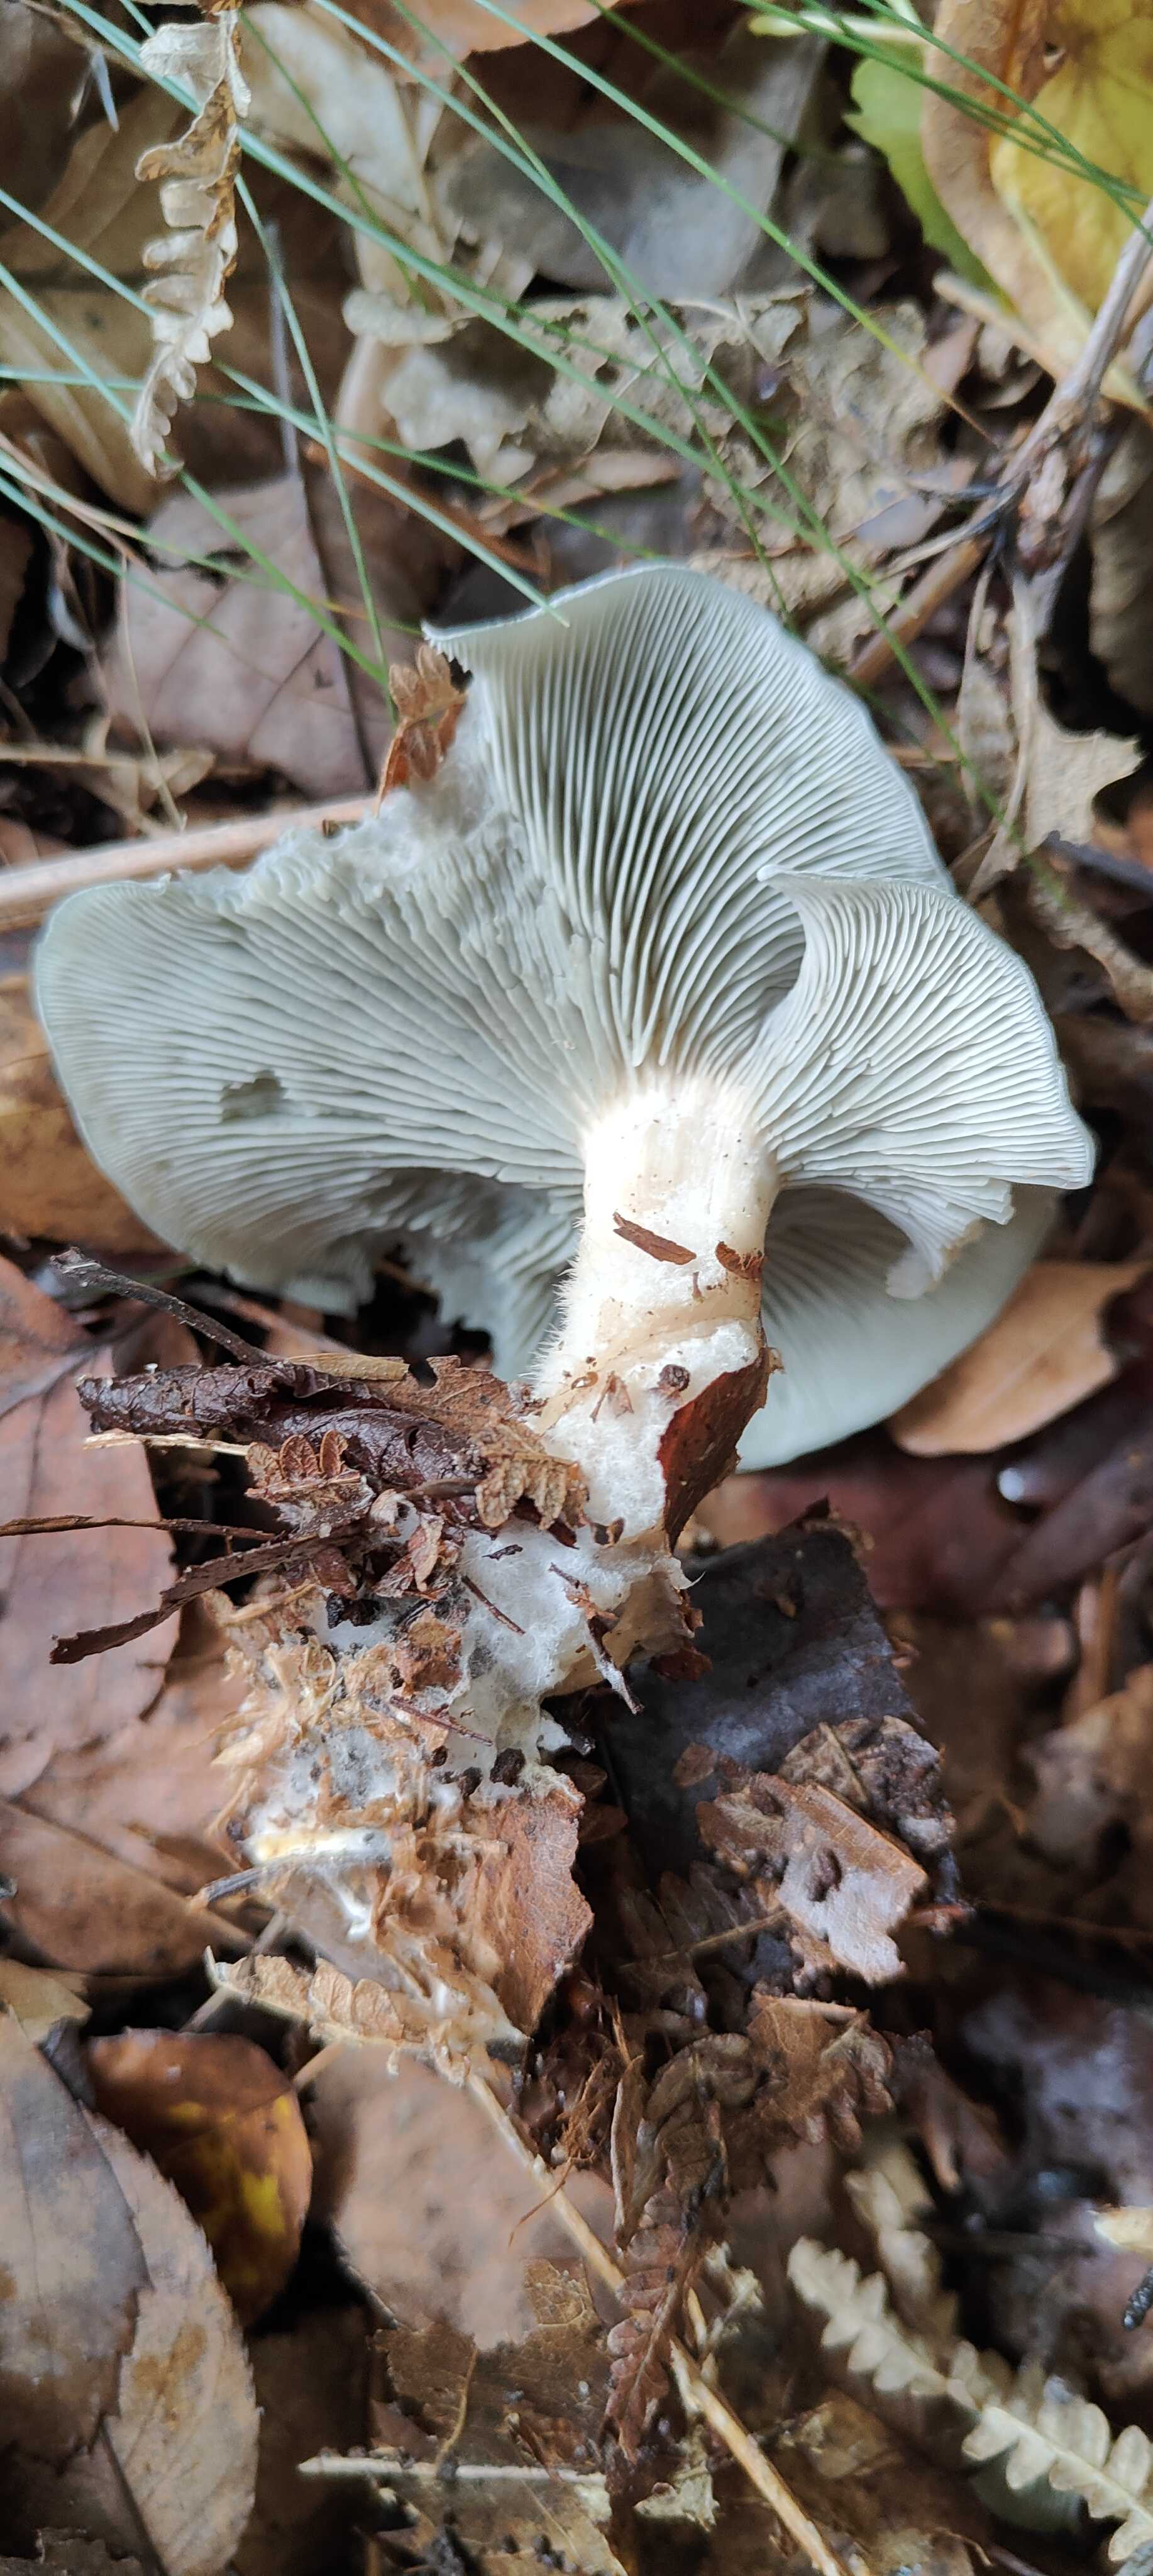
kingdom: Fungi
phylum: Basidiomycota
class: Agaricomycetes
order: Agaricales
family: Tricholomataceae
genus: Clitocybe
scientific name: Clitocybe odora
